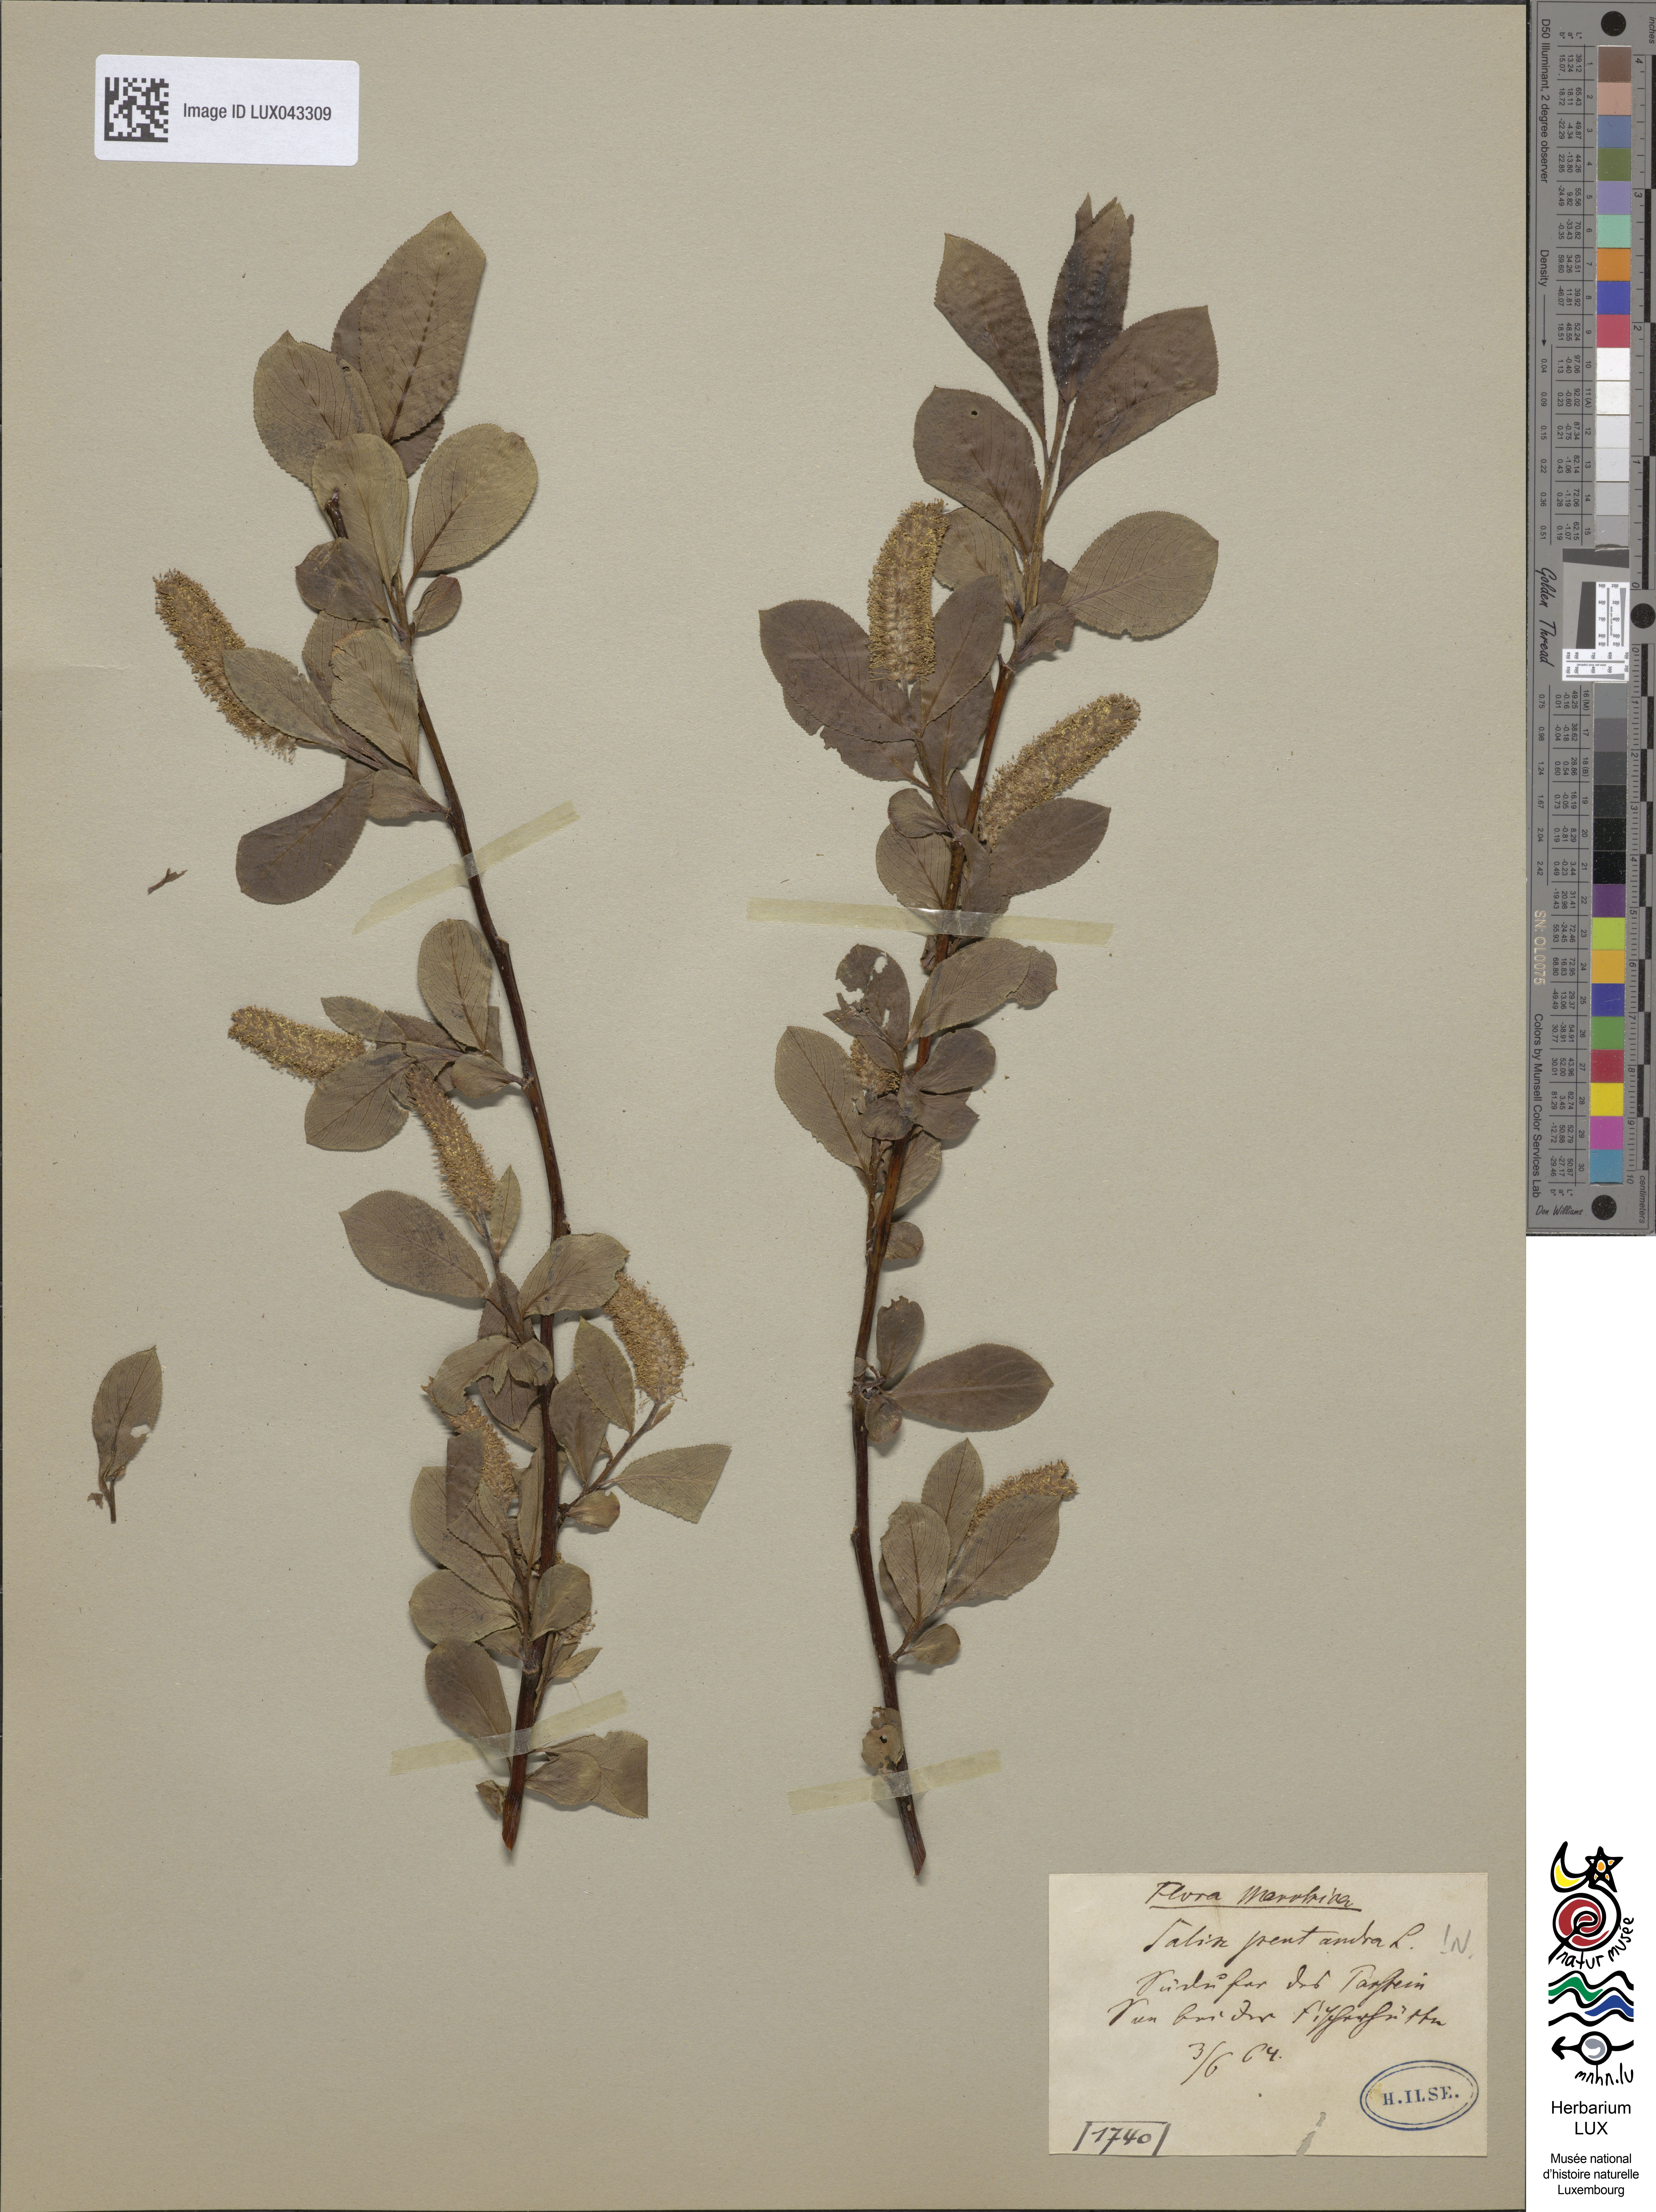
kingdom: Plantae
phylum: Tracheophyta
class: Magnoliopsida
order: Malpighiales
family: Salicaceae
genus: Salix
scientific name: Salix pentandra
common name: Bay willow
